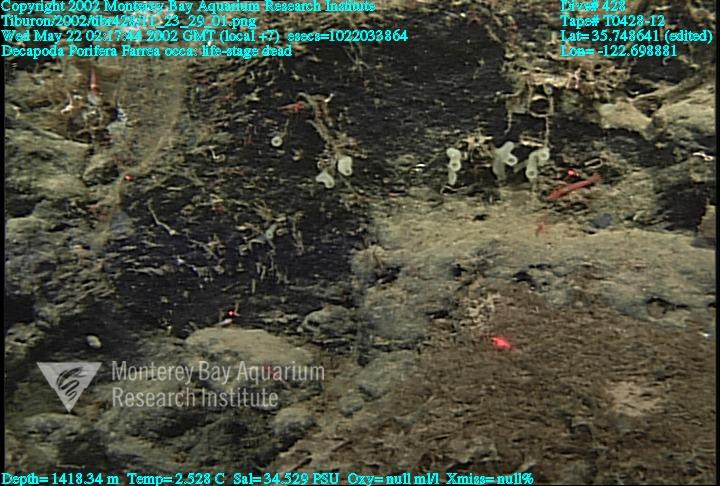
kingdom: Animalia
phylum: Porifera
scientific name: Porifera
